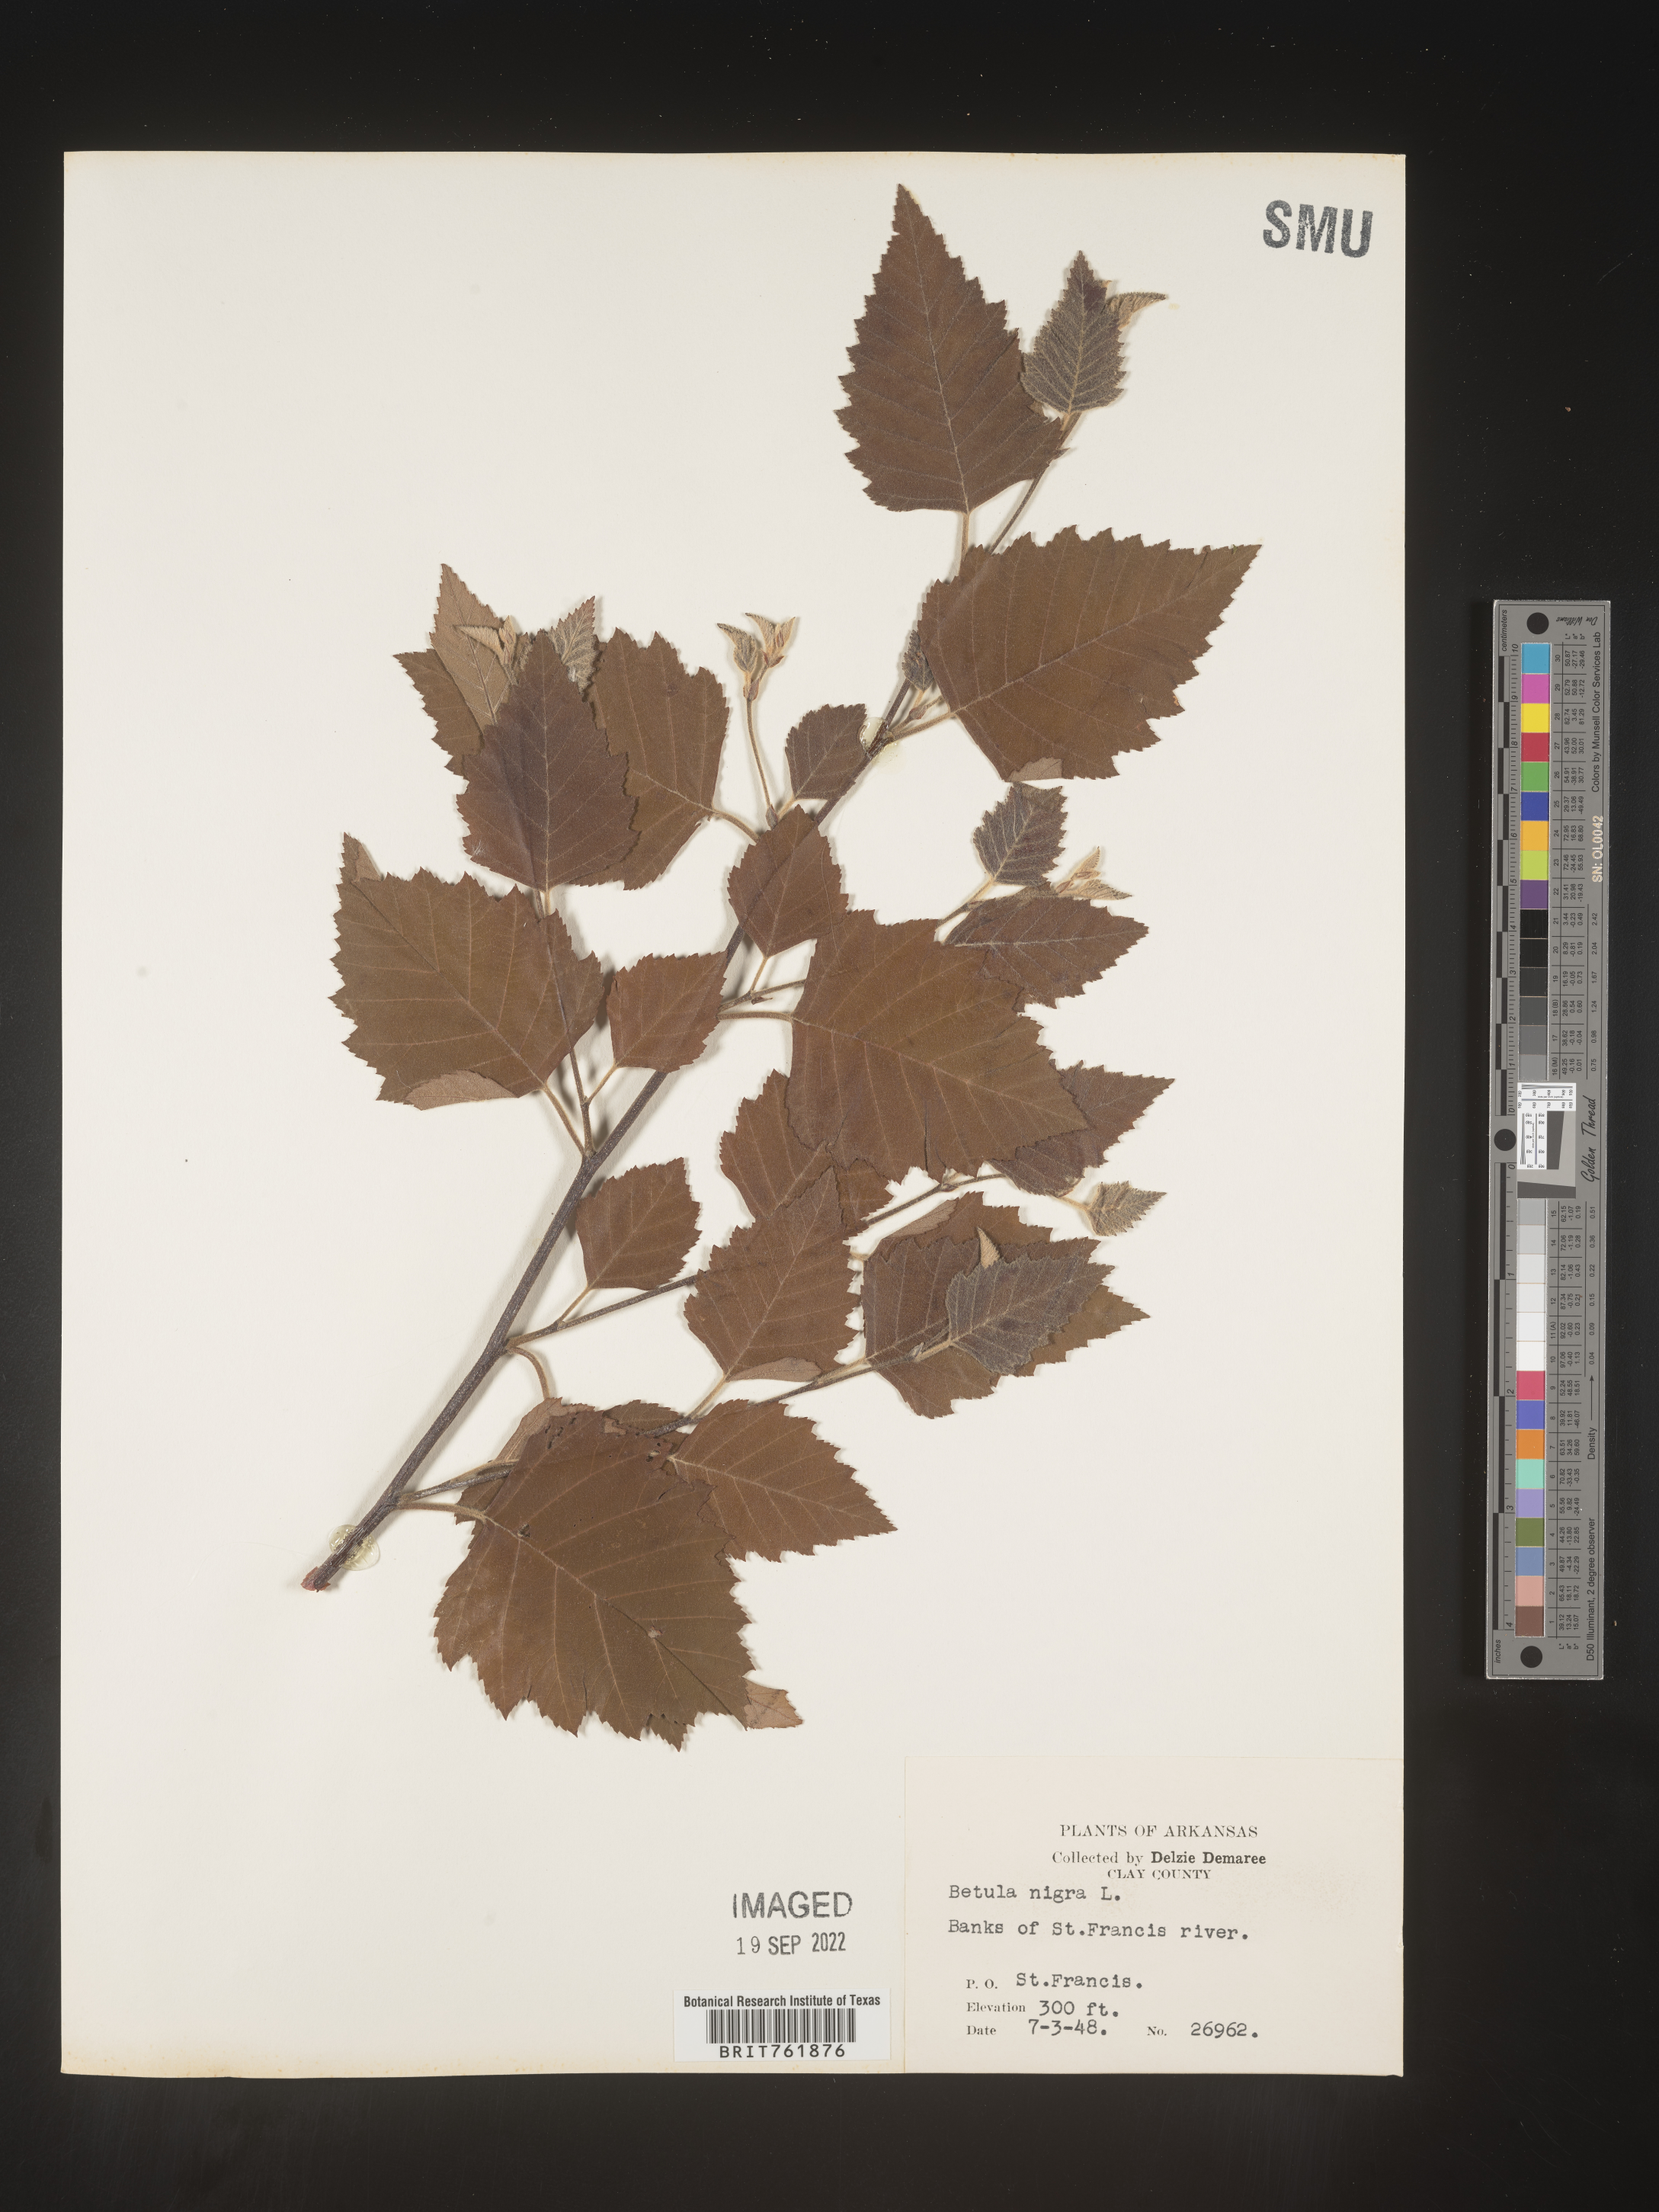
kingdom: Plantae
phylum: Tracheophyta
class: Magnoliopsida
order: Fagales
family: Betulaceae
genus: Betula
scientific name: Betula nigra
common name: Black birch
